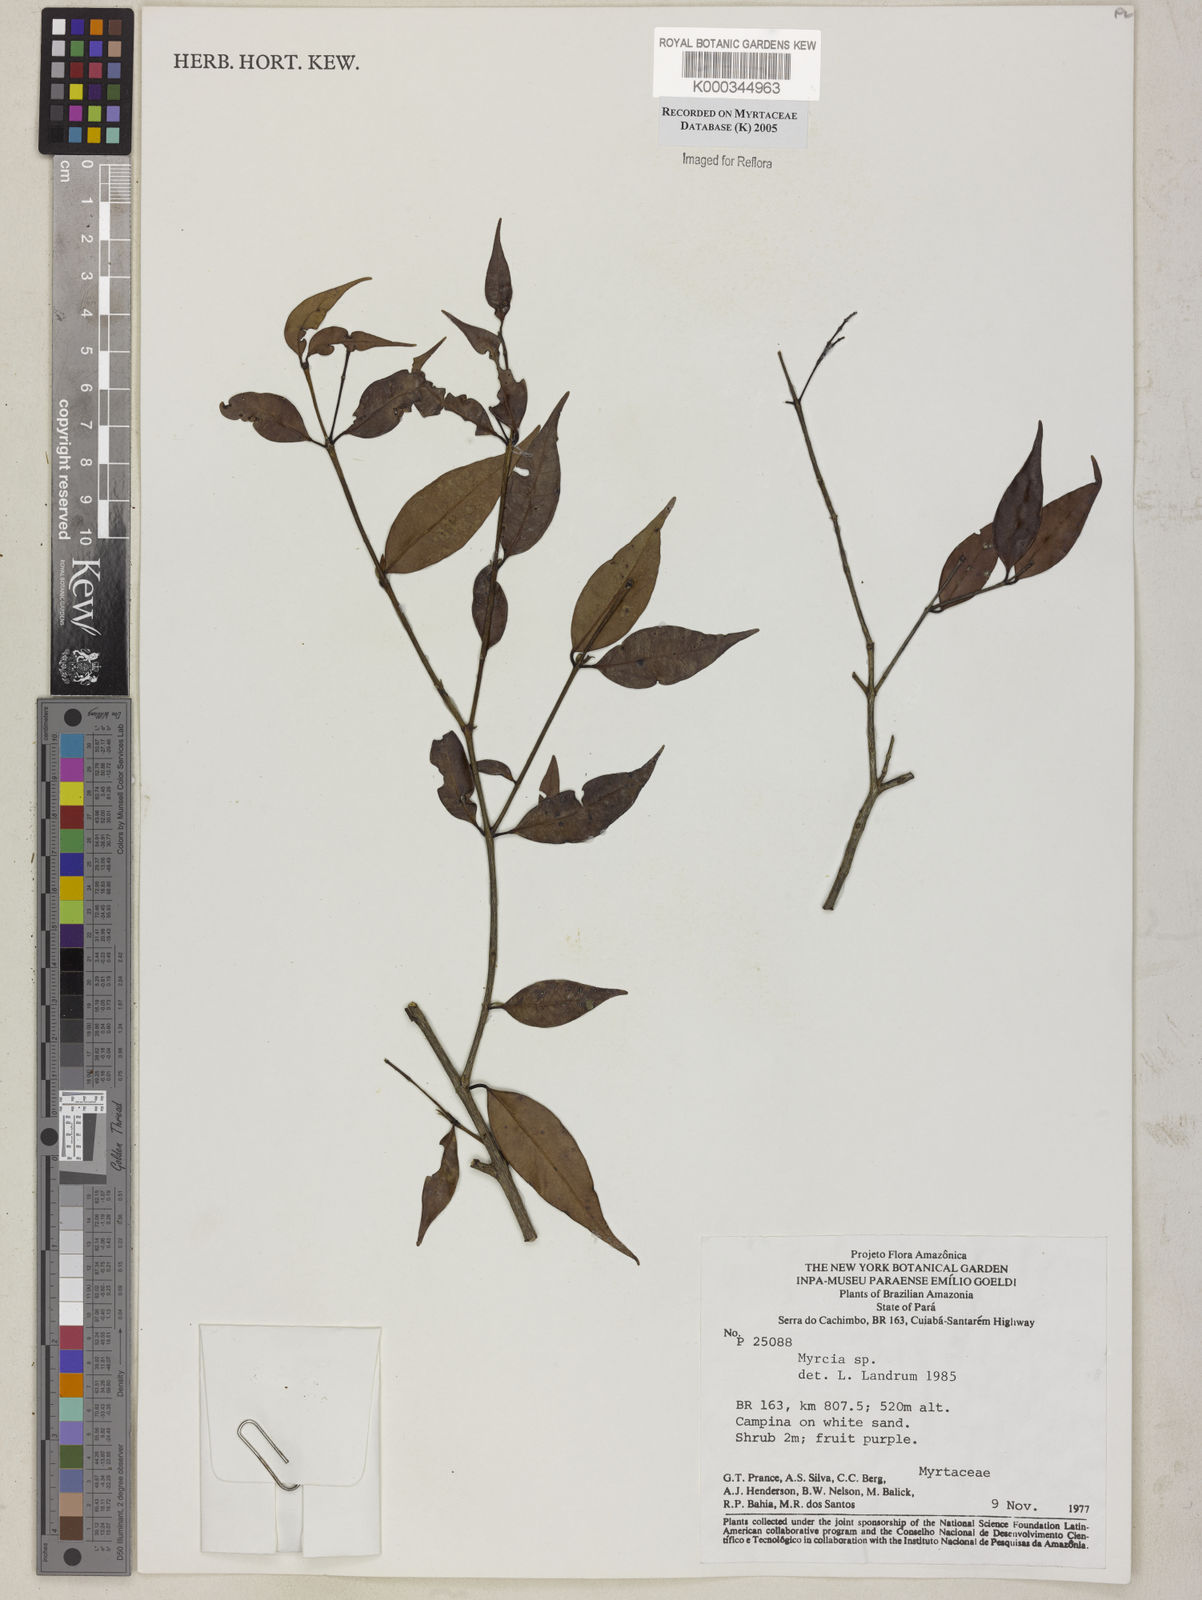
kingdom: Plantae
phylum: Tracheophyta
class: Magnoliopsida
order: Myrtales
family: Myrtaceae
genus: Myrcia
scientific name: Myrcia
